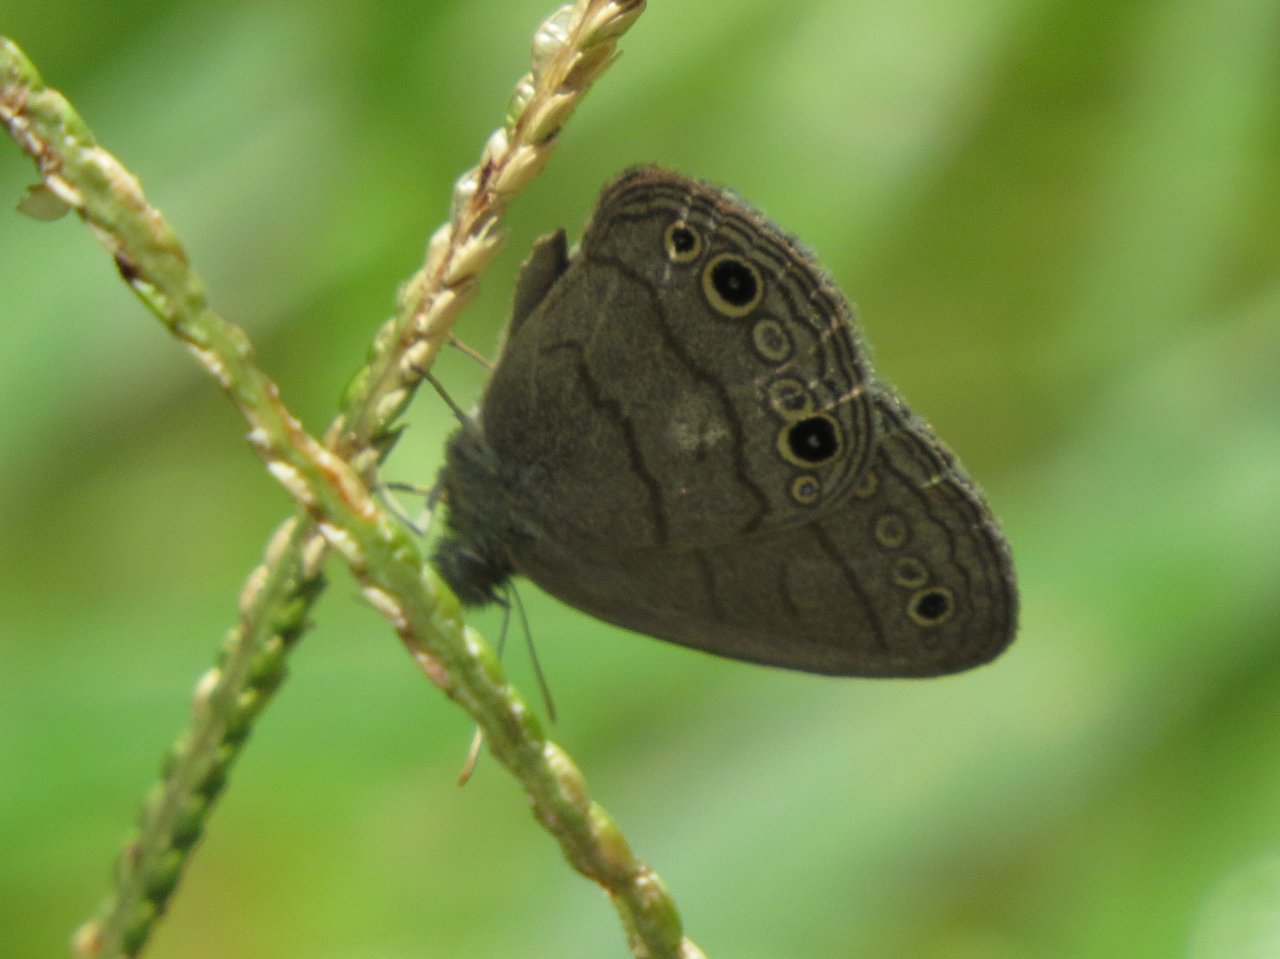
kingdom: Animalia
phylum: Arthropoda
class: Insecta
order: Lepidoptera
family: Nymphalidae
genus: Hermeuptychia
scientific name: Hermeuptychia hermes
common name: Carolina Satyr
